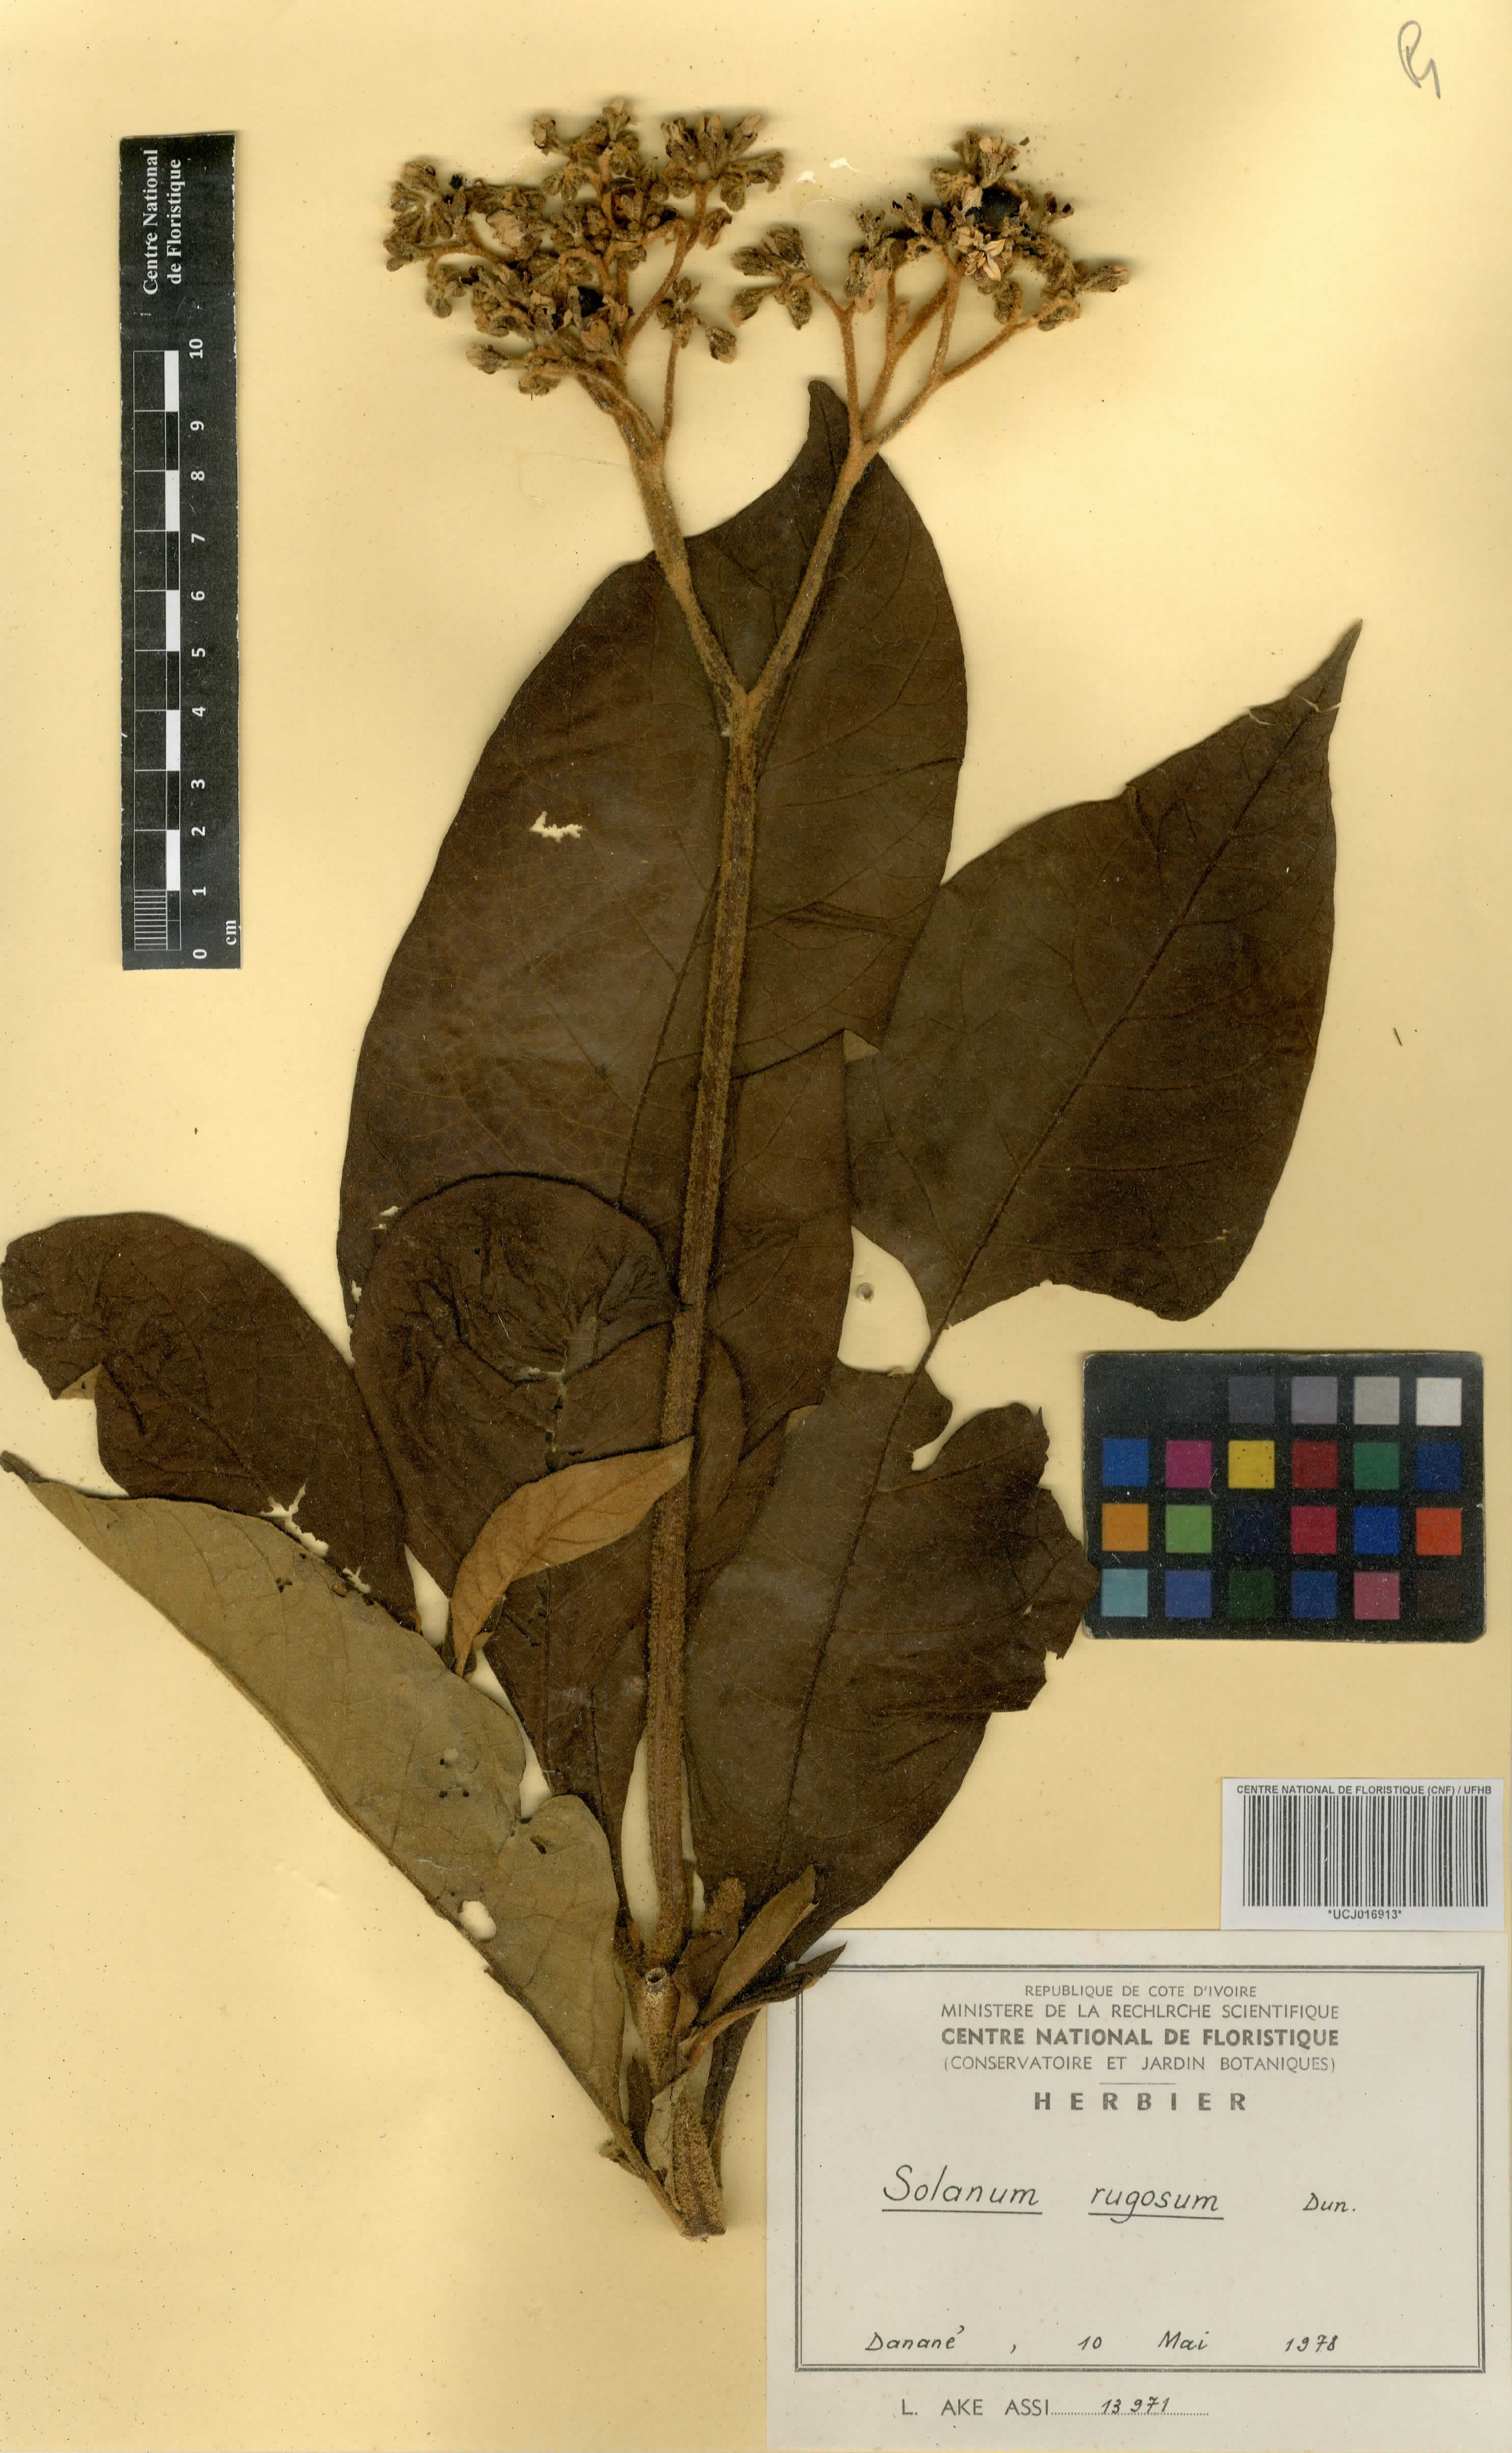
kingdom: Plantae
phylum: Tracheophyta
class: Magnoliopsida
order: Solanales
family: Solanaceae
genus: Solanum
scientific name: Solanum rugosum
